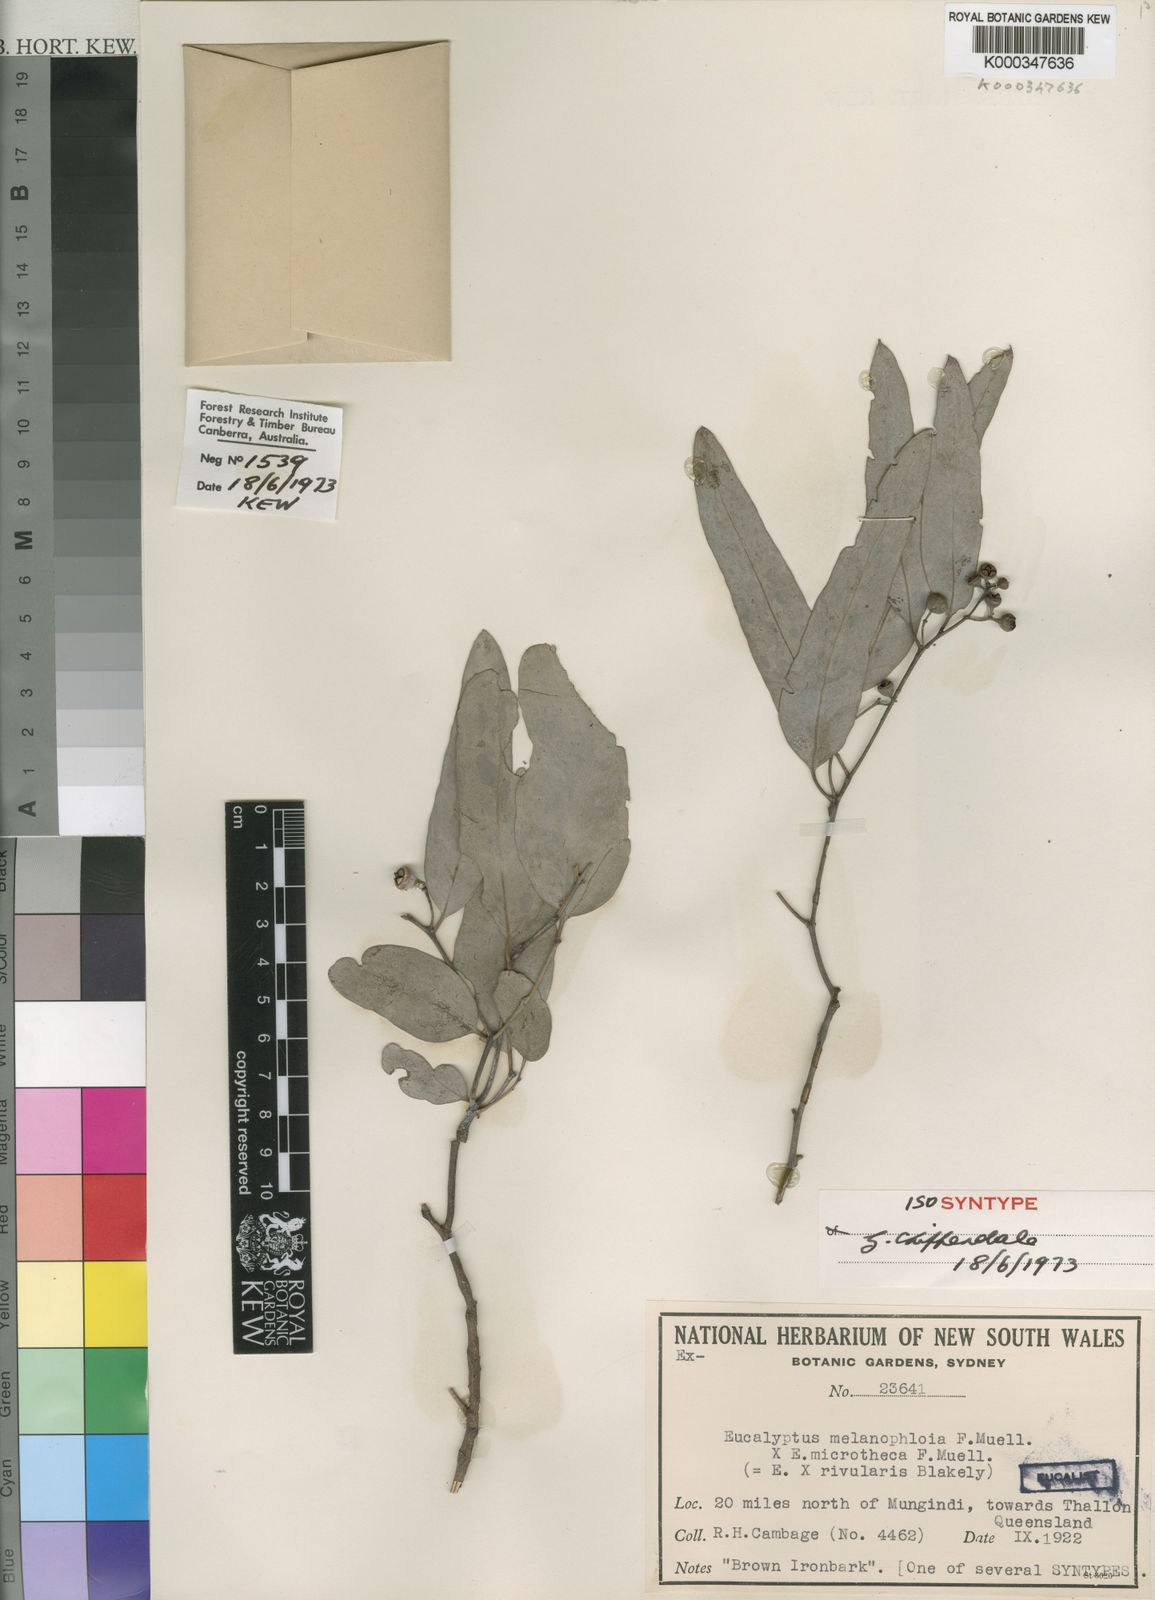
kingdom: Plantae
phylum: Tracheophyta
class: Magnoliopsida
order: Myrtales
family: Myrtaceae
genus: Eucalyptus
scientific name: Eucalyptus rivularis
